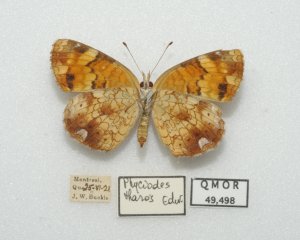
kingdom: Animalia
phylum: Arthropoda
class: Insecta
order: Lepidoptera
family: Nymphalidae
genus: Phyciodes
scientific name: Phyciodes tharos
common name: Northern Crescent
